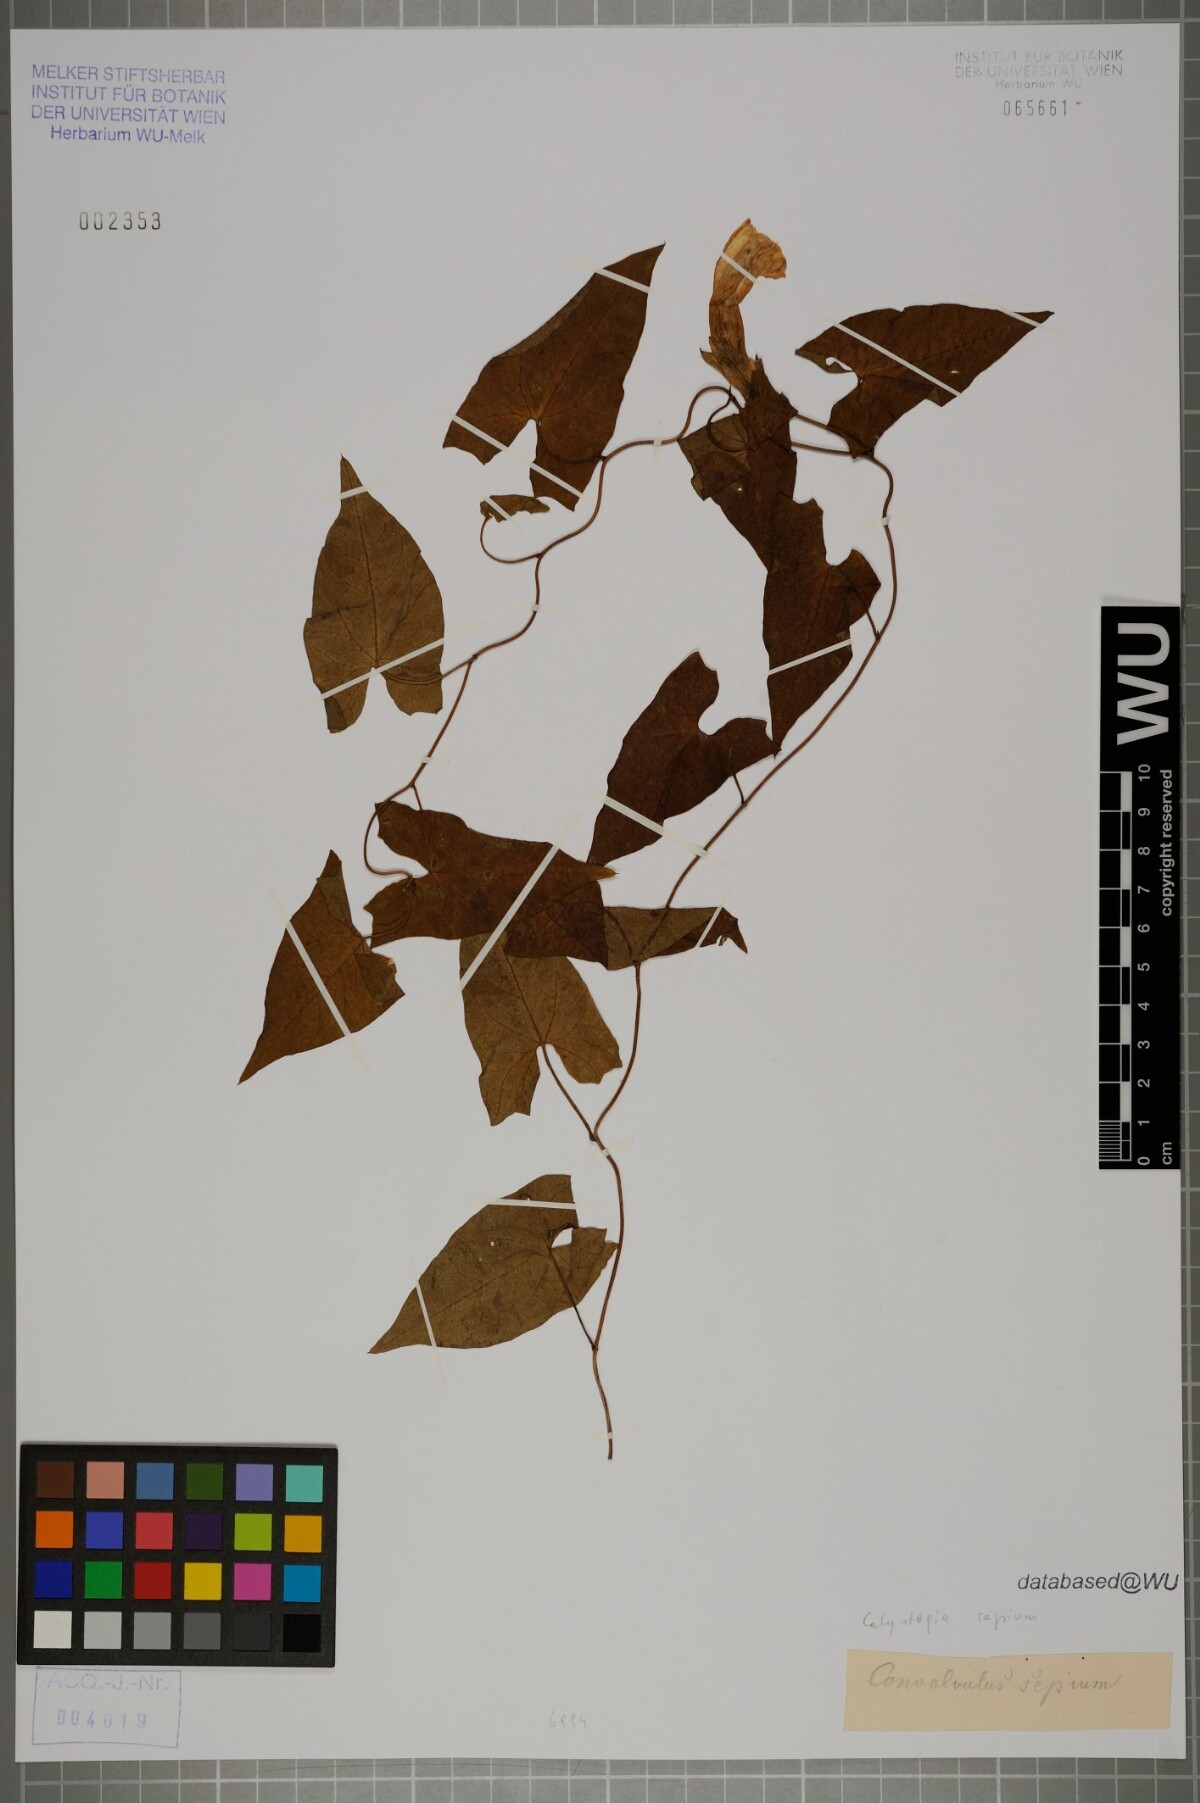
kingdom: Plantae
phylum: Tracheophyta
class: Magnoliopsida
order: Solanales
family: Convolvulaceae
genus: Calystegia
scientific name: Calystegia sepium
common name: Hedge bindweed
